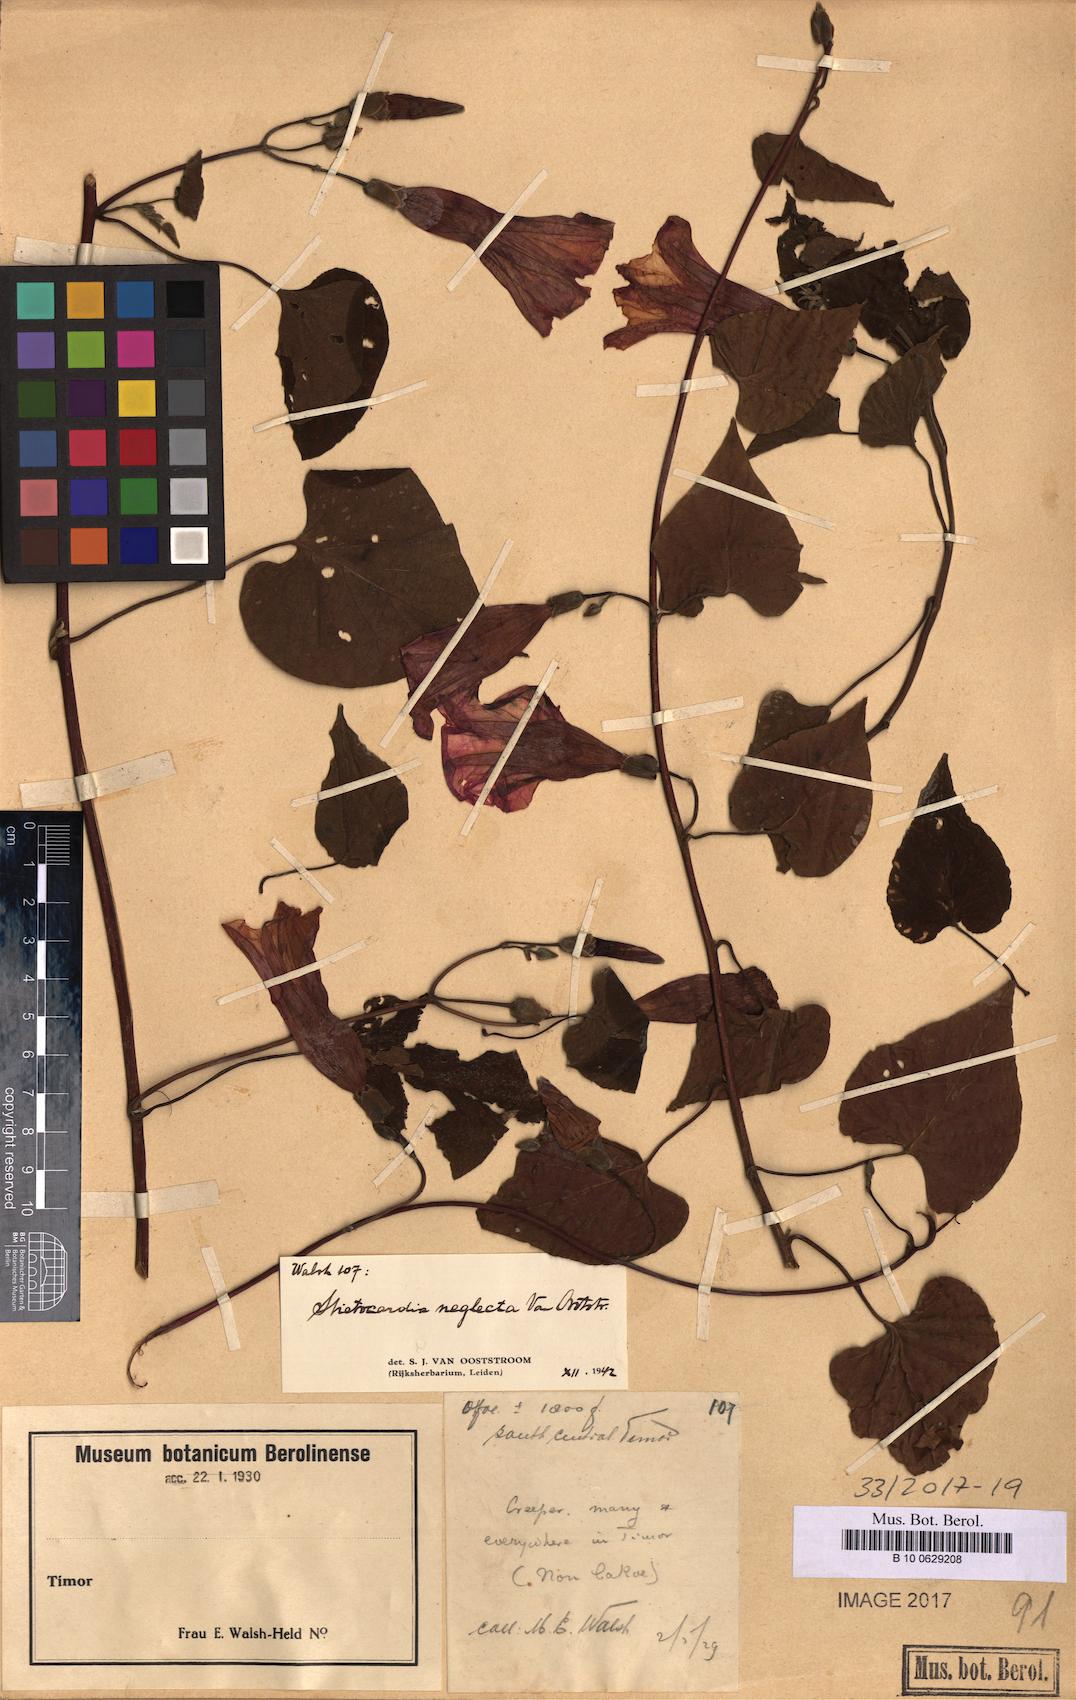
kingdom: Plantae
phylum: Tracheophyta
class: Magnoliopsida
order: Solanales
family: Convolvulaceae
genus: Stictocardia
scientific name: Stictocardia neglecta
